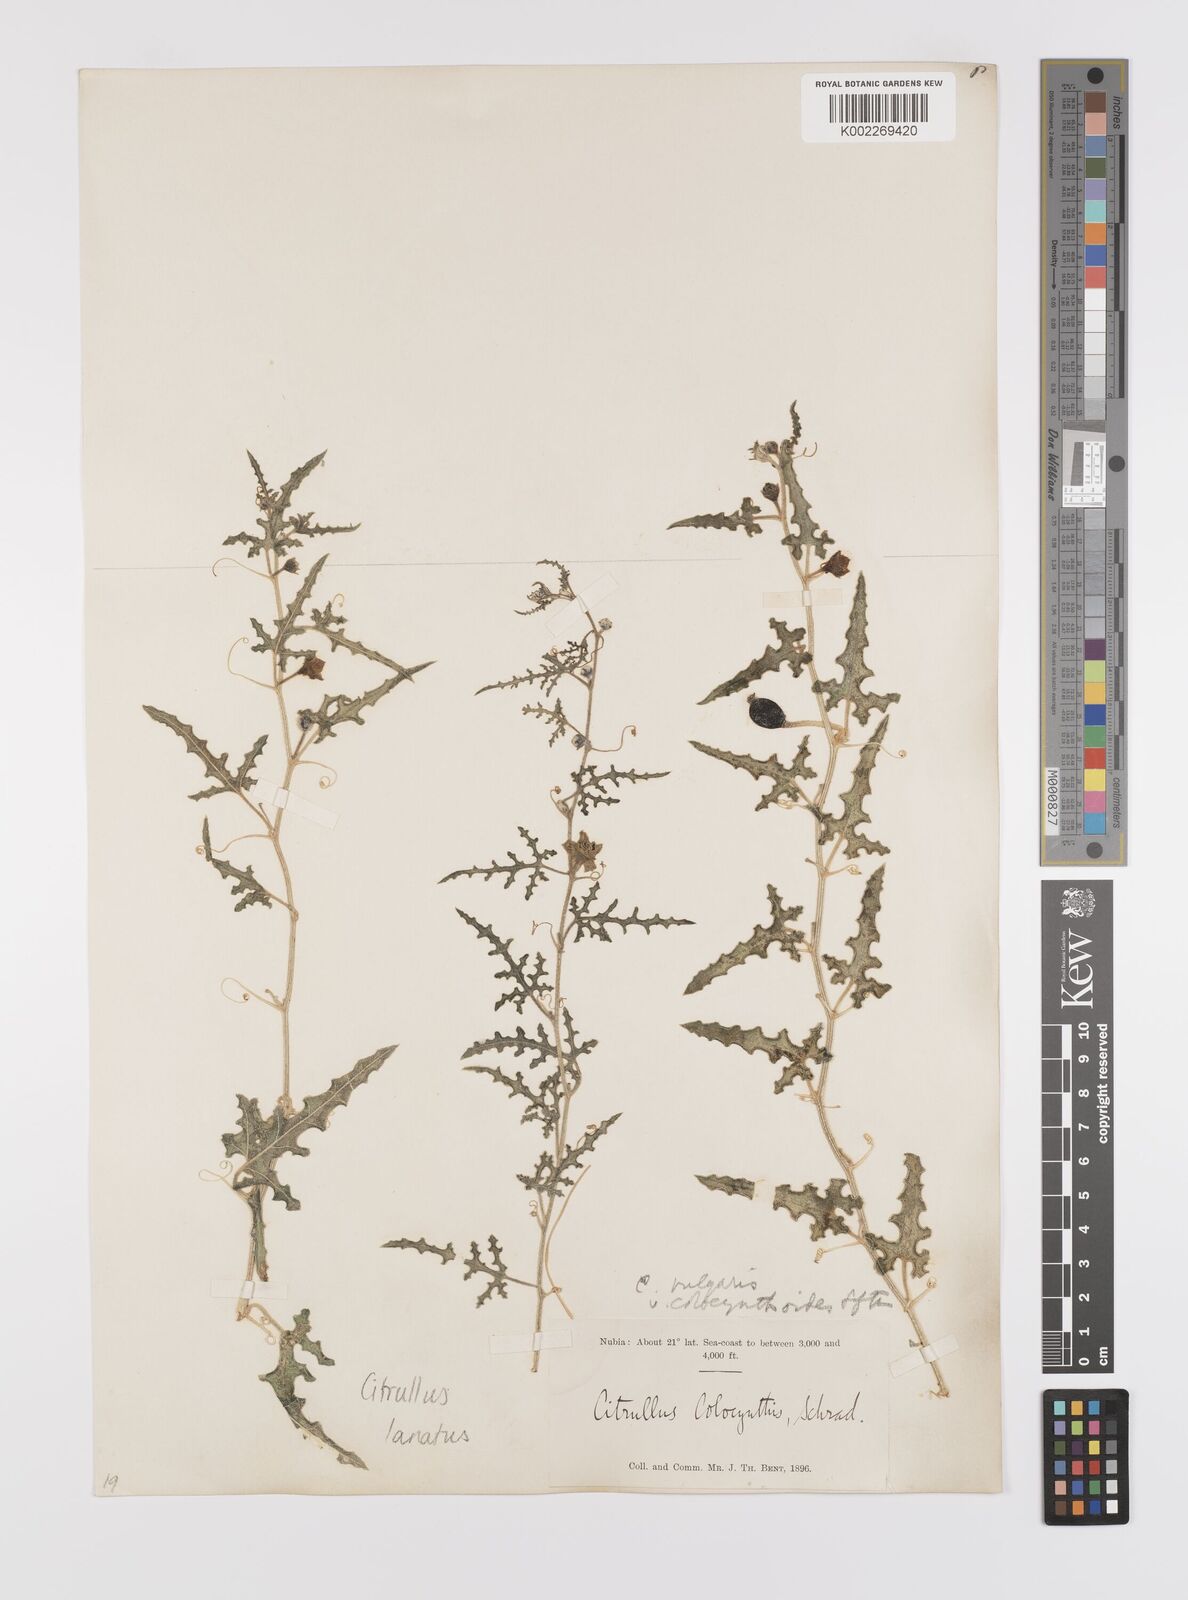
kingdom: Plantae
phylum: Tracheophyta
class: Magnoliopsida
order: Cucurbitales
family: Cucurbitaceae
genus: Citrullus
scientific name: Citrullus lanatus
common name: Watermelon
